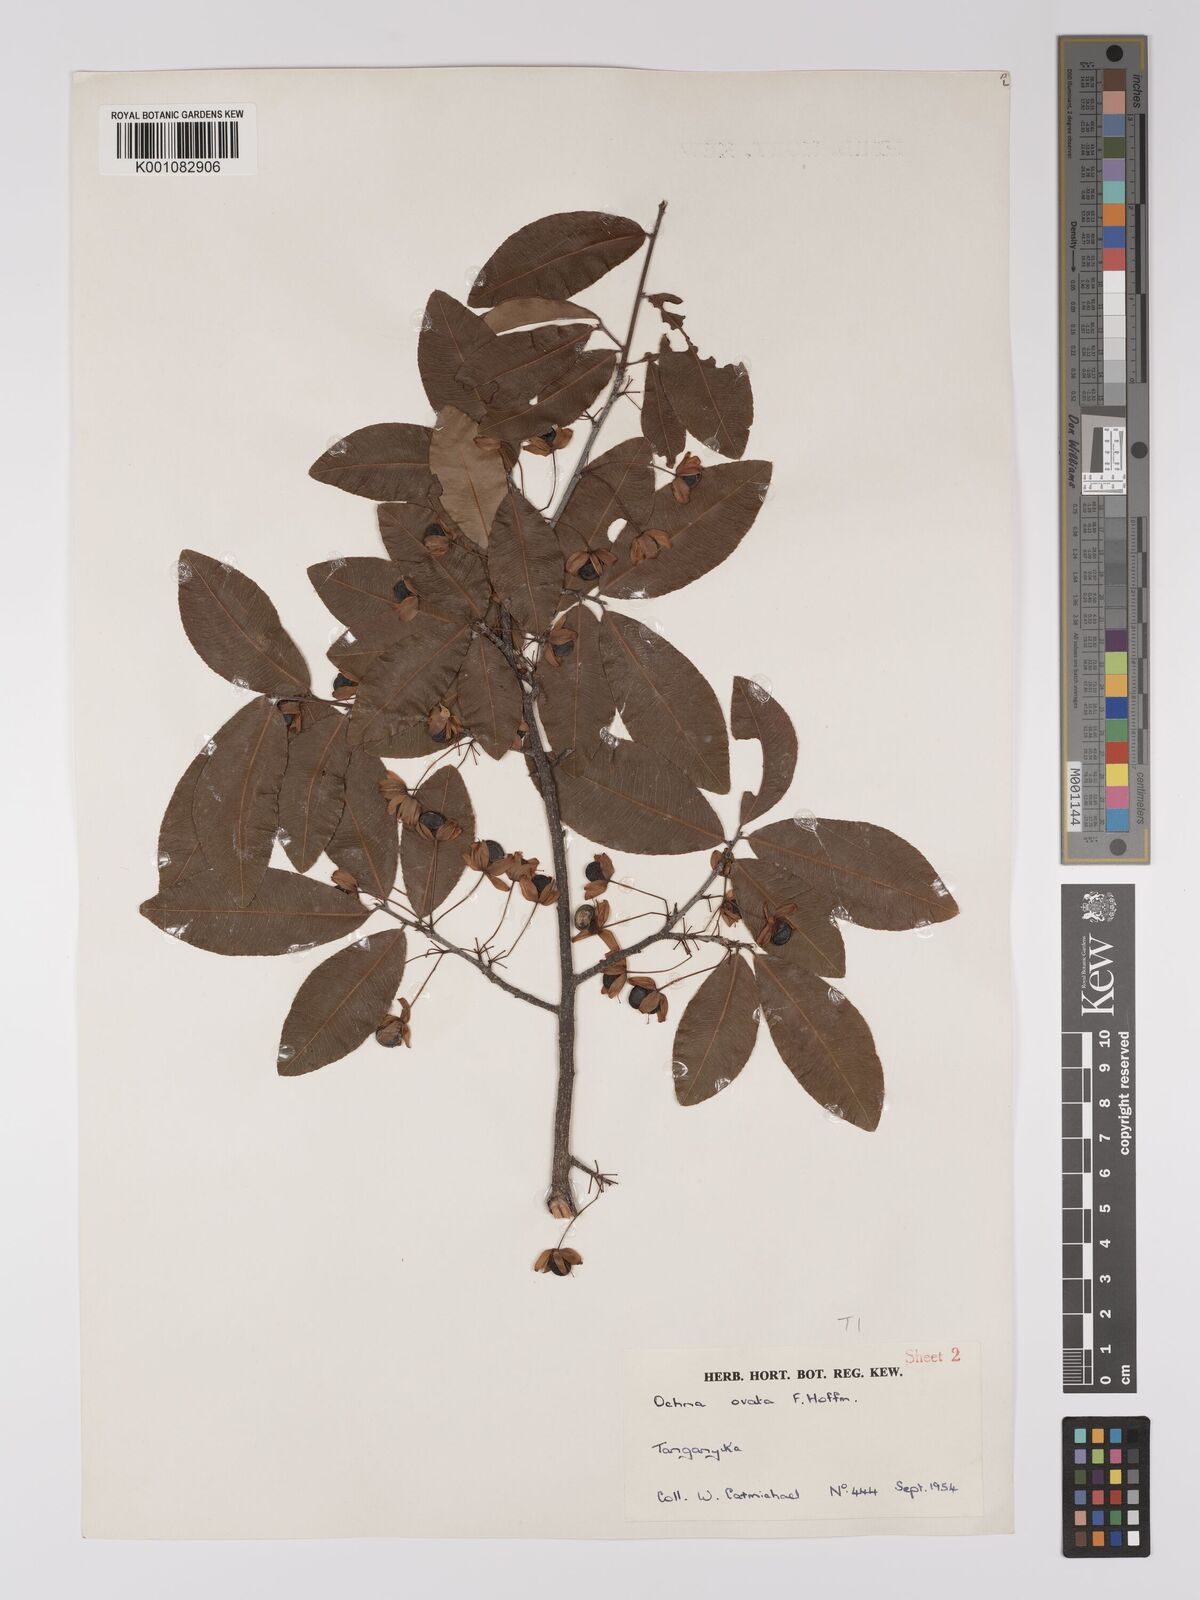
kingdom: Plantae
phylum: Tracheophyta
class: Magnoliopsida
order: Malpighiales
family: Ochnaceae
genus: Ochna
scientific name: Ochna ovata
